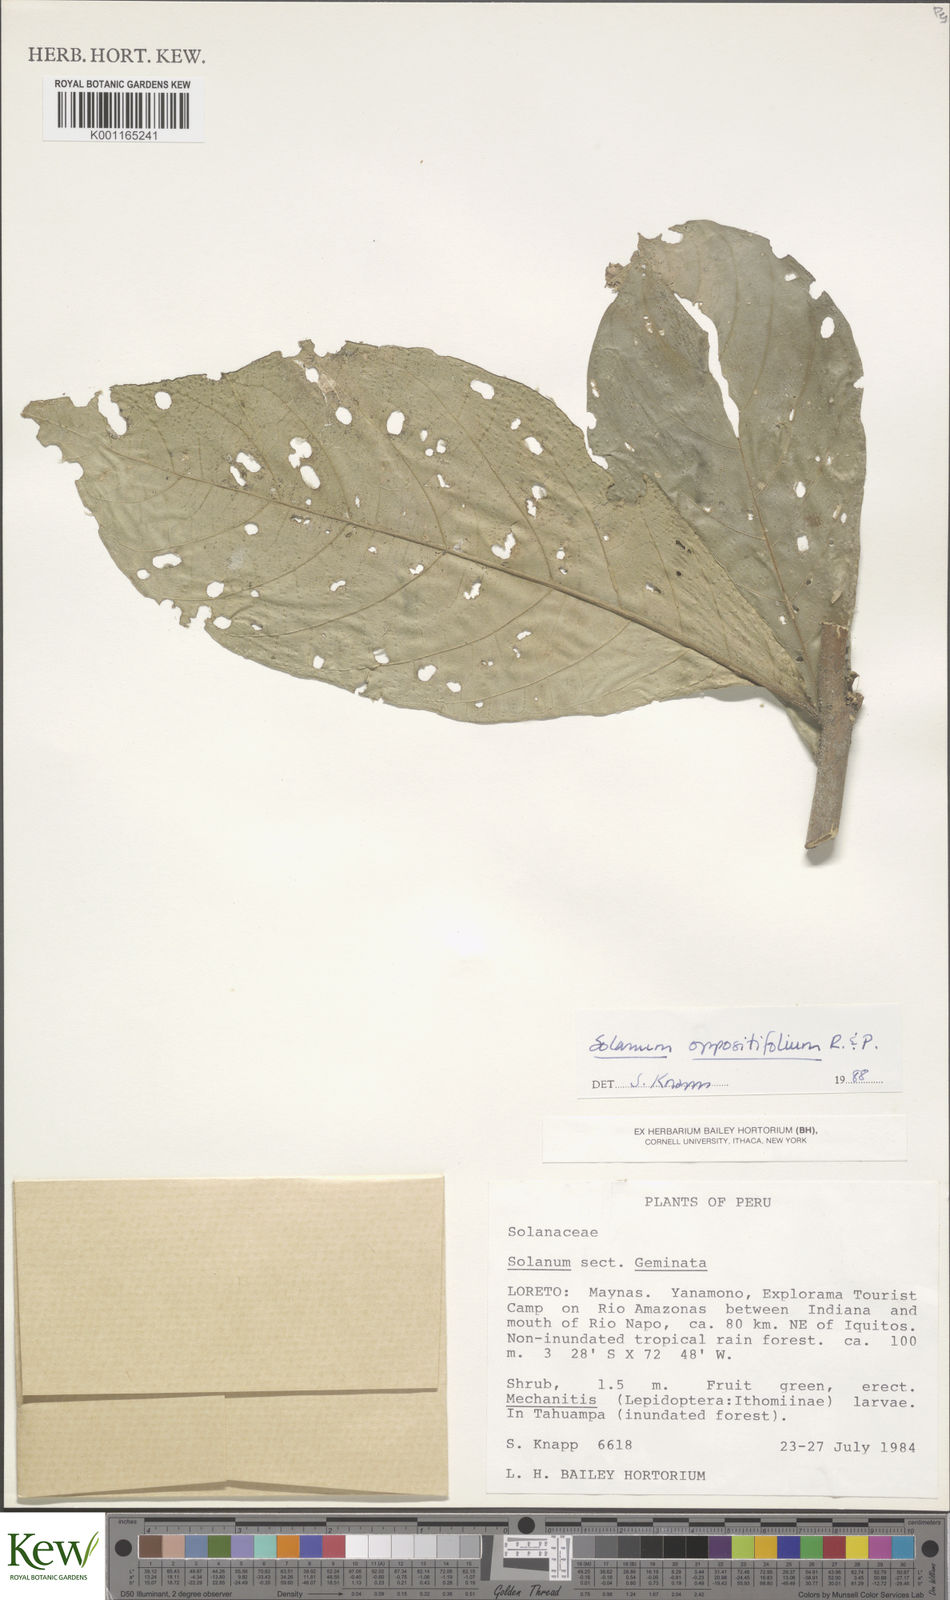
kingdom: Plantae
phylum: Tracheophyta
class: Magnoliopsida
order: Solanales
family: Solanaceae
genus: Solanum
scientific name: Solanum oppositifolium
